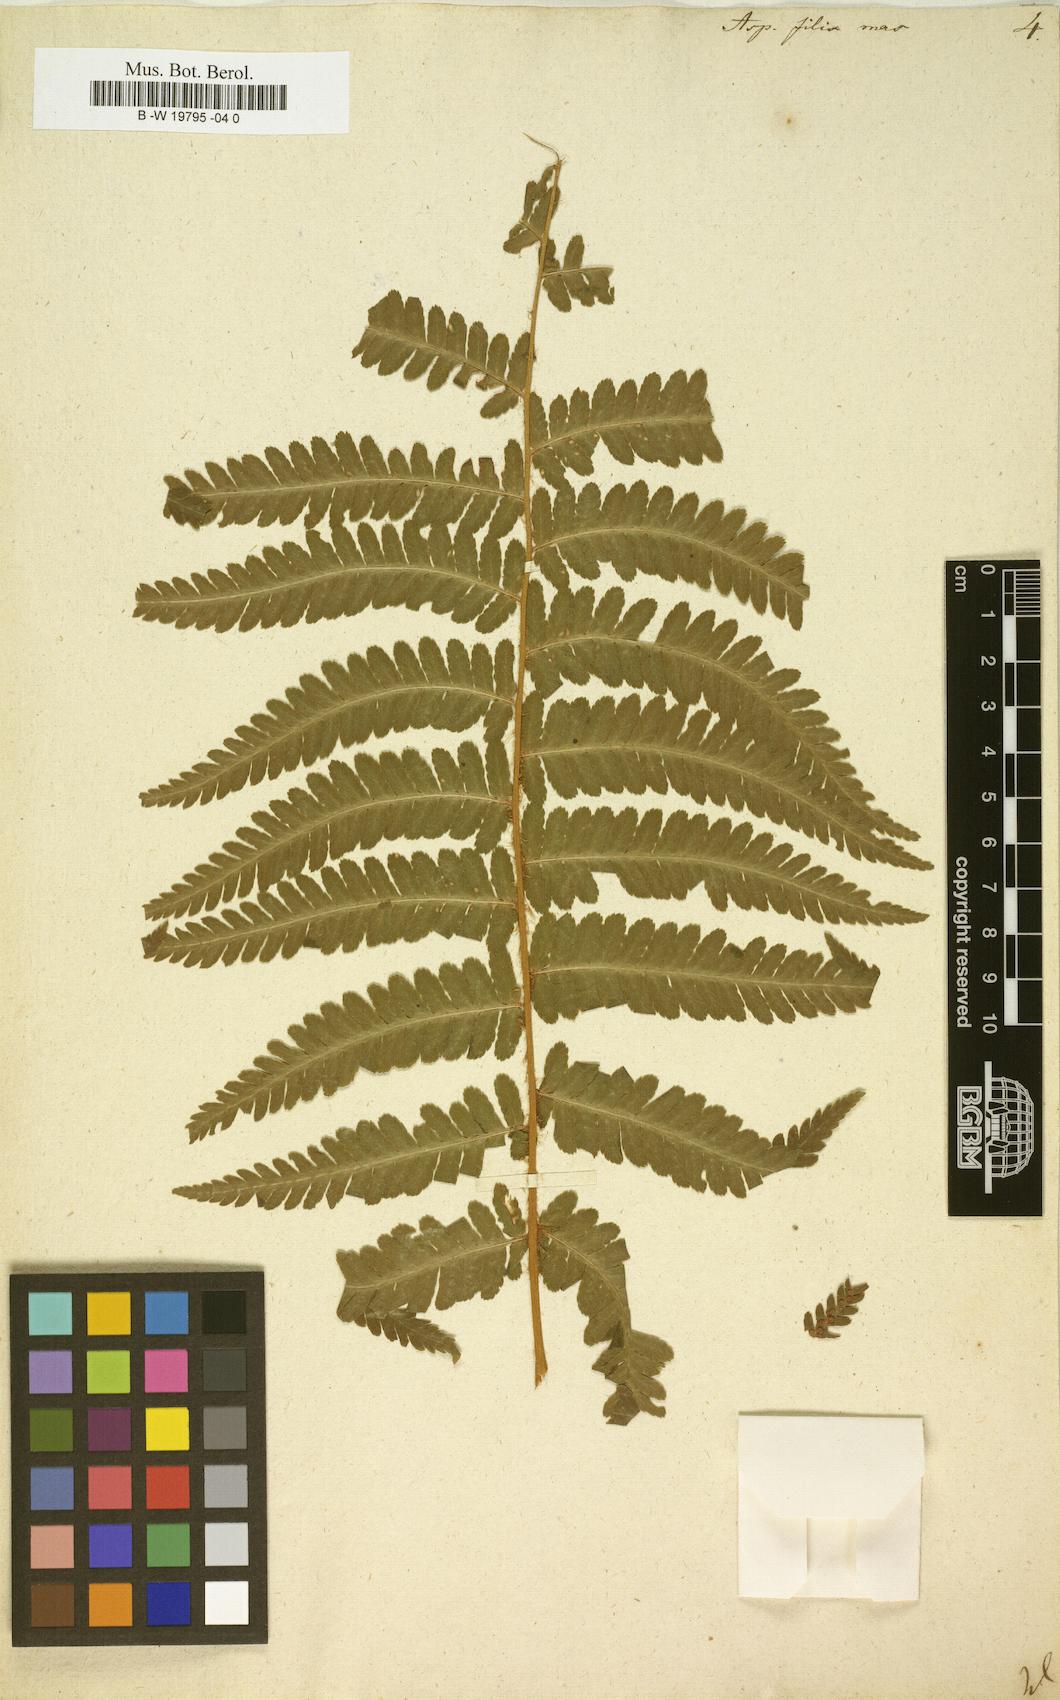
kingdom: Plantae
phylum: Tracheophyta
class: Polypodiopsida
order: Polypodiales
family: Dryopteridaceae
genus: Dryopteris
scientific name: Dryopteris filix-mas
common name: Male fern
